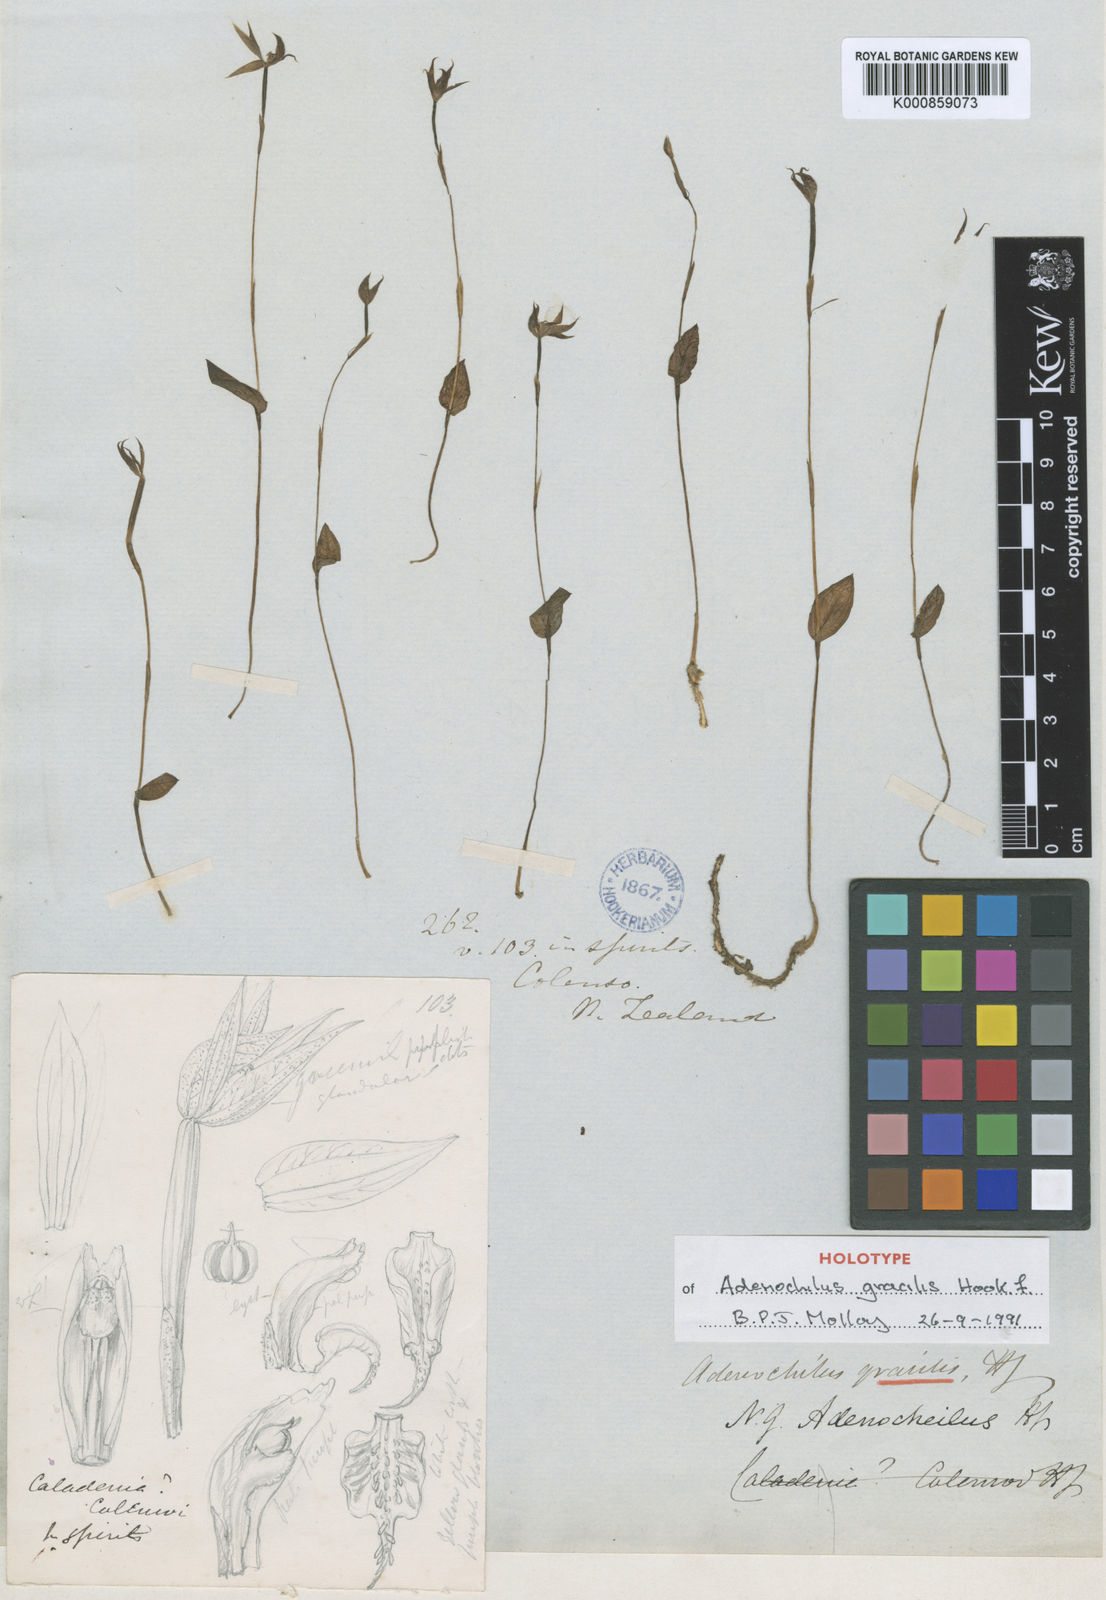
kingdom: Plantae
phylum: Tracheophyta
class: Liliopsida
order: Asparagales
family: Orchidaceae
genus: Adenochilus
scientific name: Adenochilus gracilis
